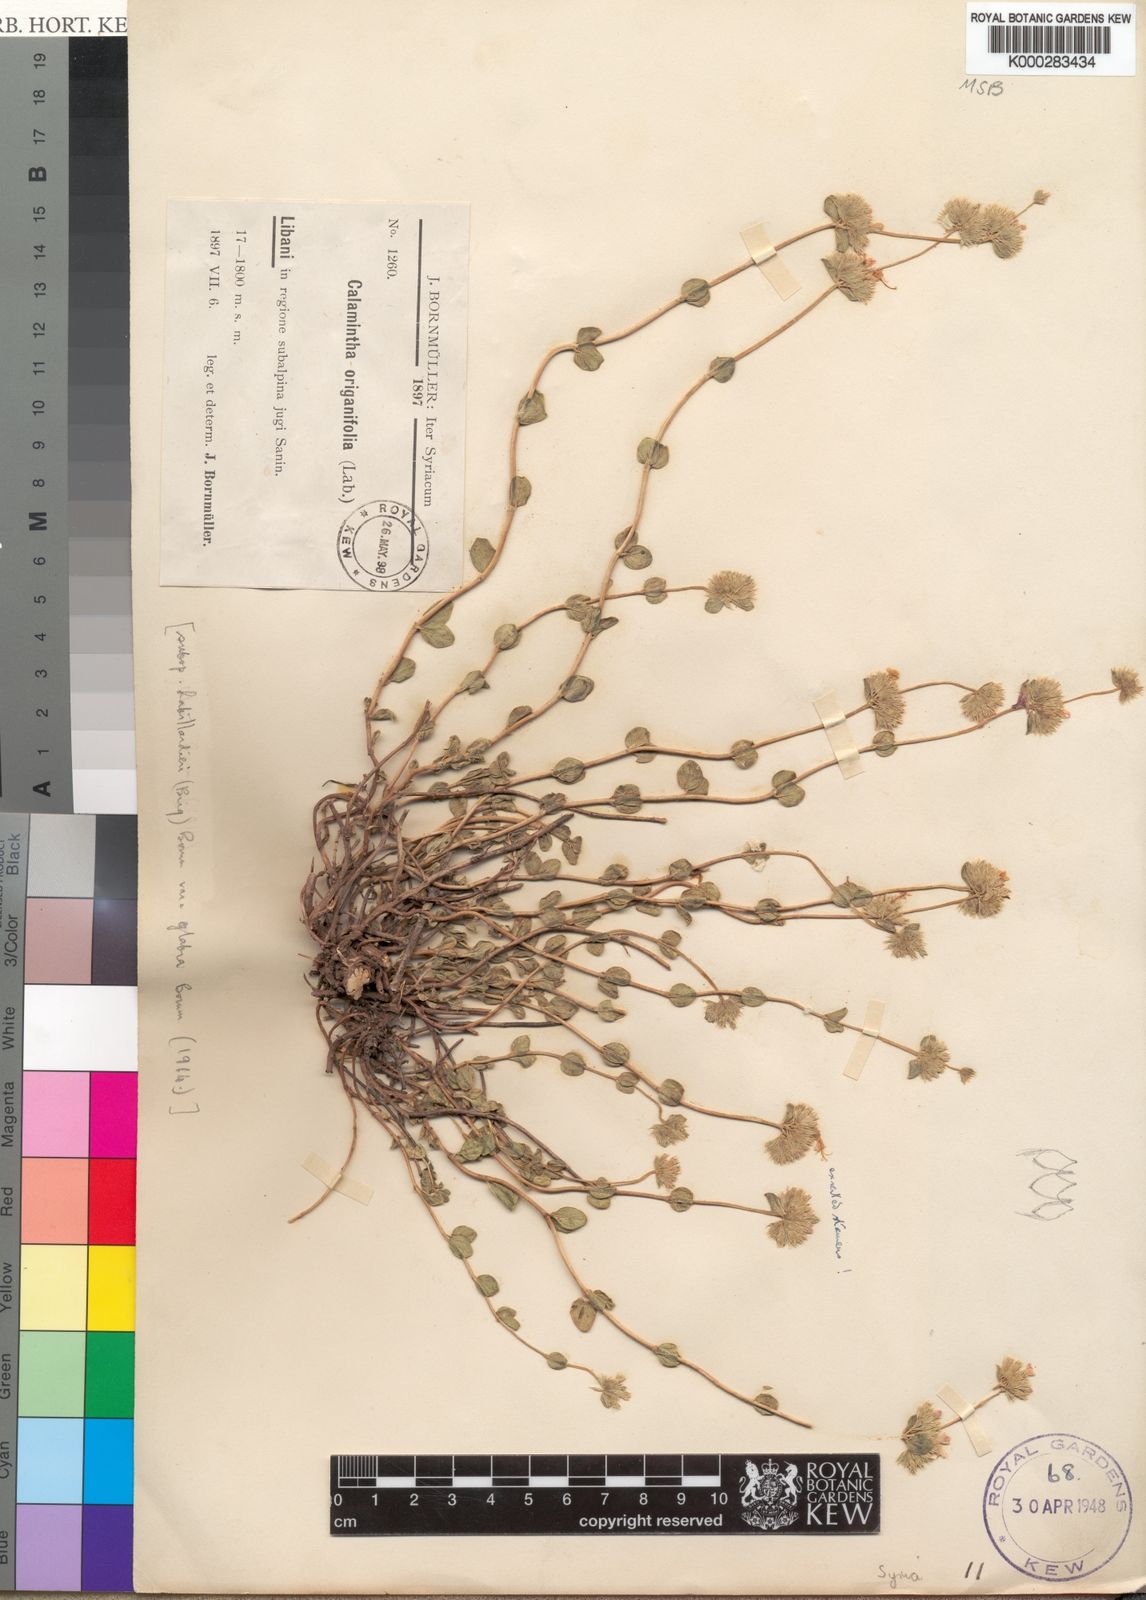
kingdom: Plantae
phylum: Tracheophyta
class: Magnoliopsida
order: Lamiales
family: Lamiaceae
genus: Cyclotrichium
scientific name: Cyclotrichium origanifolium
